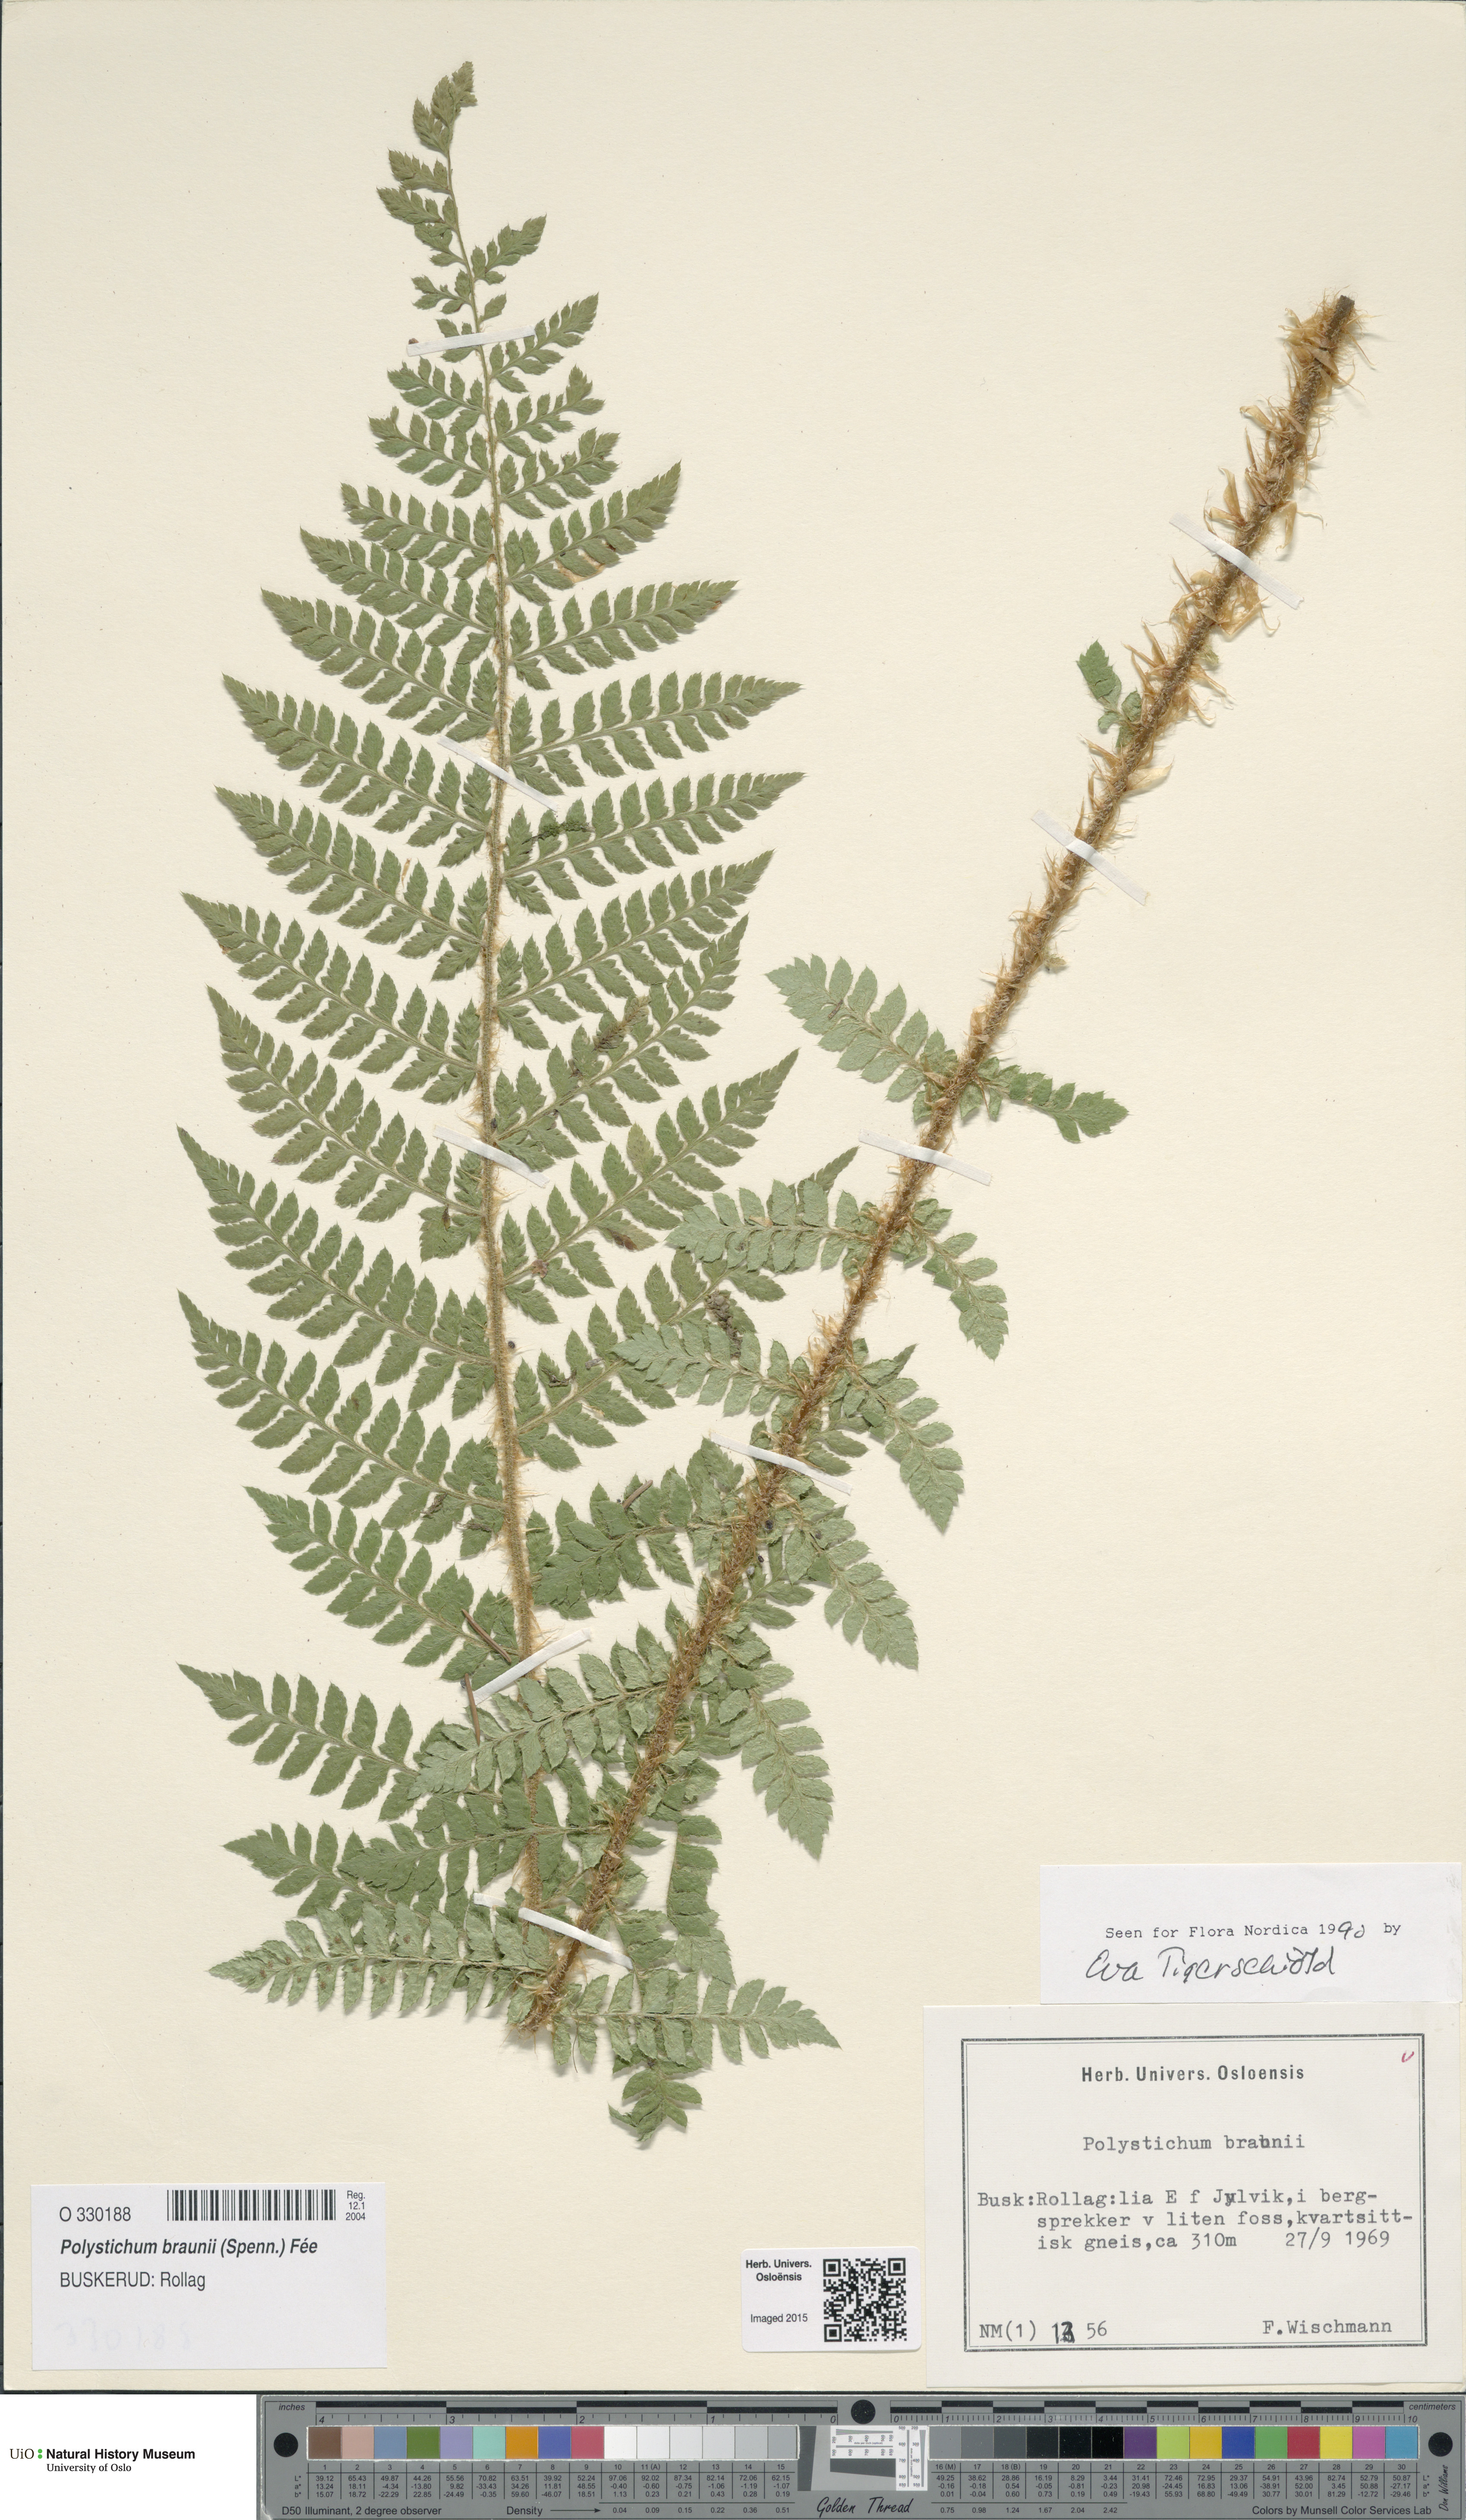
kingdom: Plantae
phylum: Tracheophyta
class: Polypodiopsida
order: Polypodiales
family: Dryopteridaceae
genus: Polystichum
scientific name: Polystichum braunii
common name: Braun's holly fern
